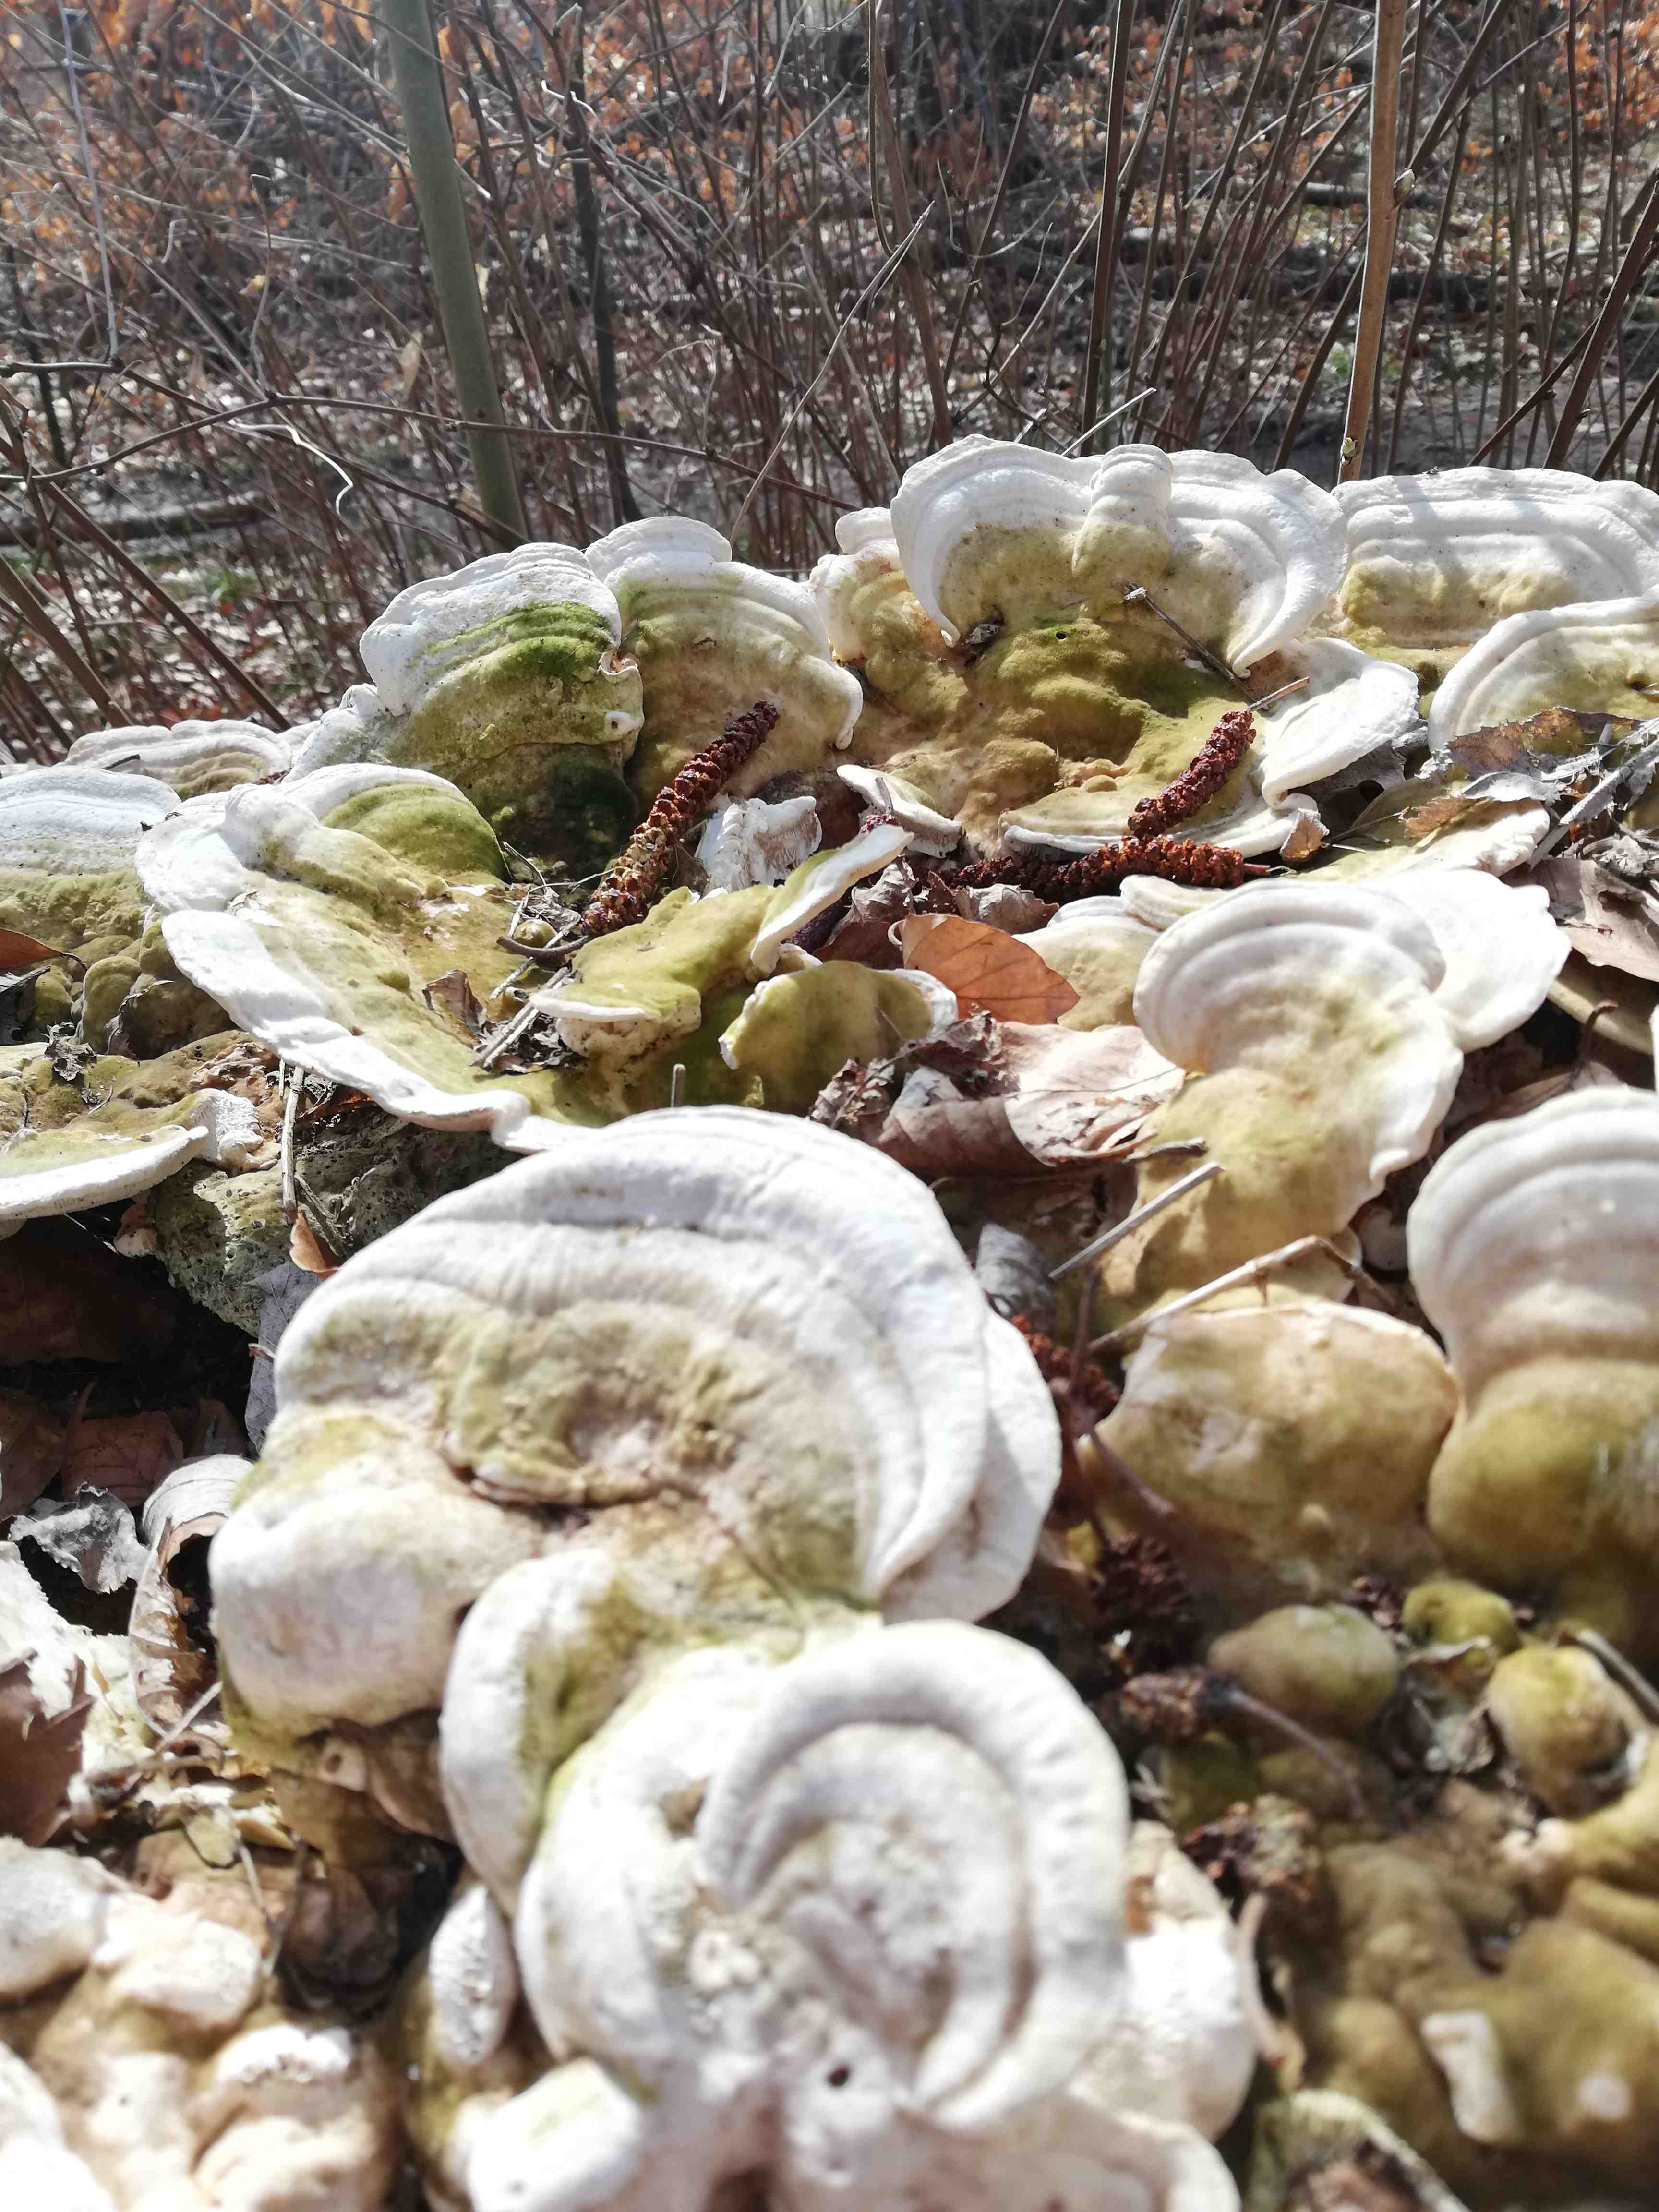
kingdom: Fungi
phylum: Basidiomycota
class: Agaricomycetes
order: Polyporales
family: Polyporaceae
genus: Trametes
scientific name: Trametes gibbosa
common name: puklet læderporesvamp
